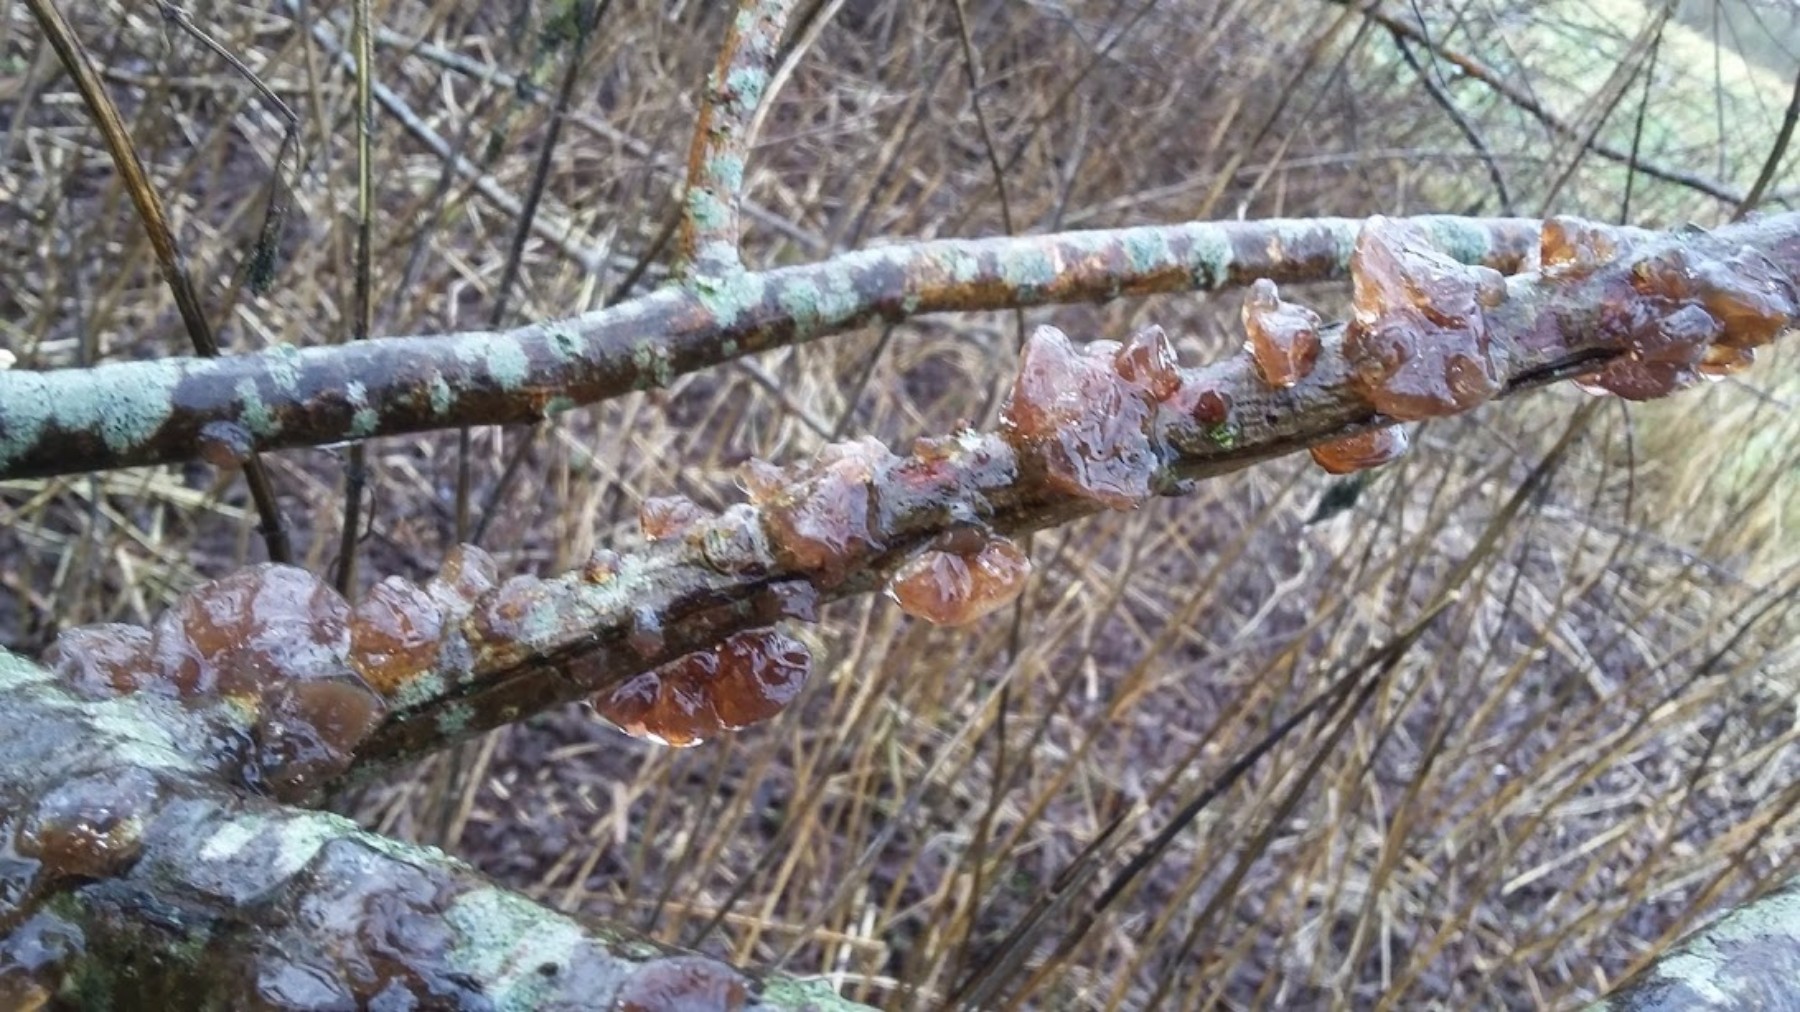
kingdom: Fungi
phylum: Basidiomycota
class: Agaricomycetes
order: Auriculariales
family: Auriculariaceae
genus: Exidia
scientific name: Exidia recisa
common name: pile-bævretop
